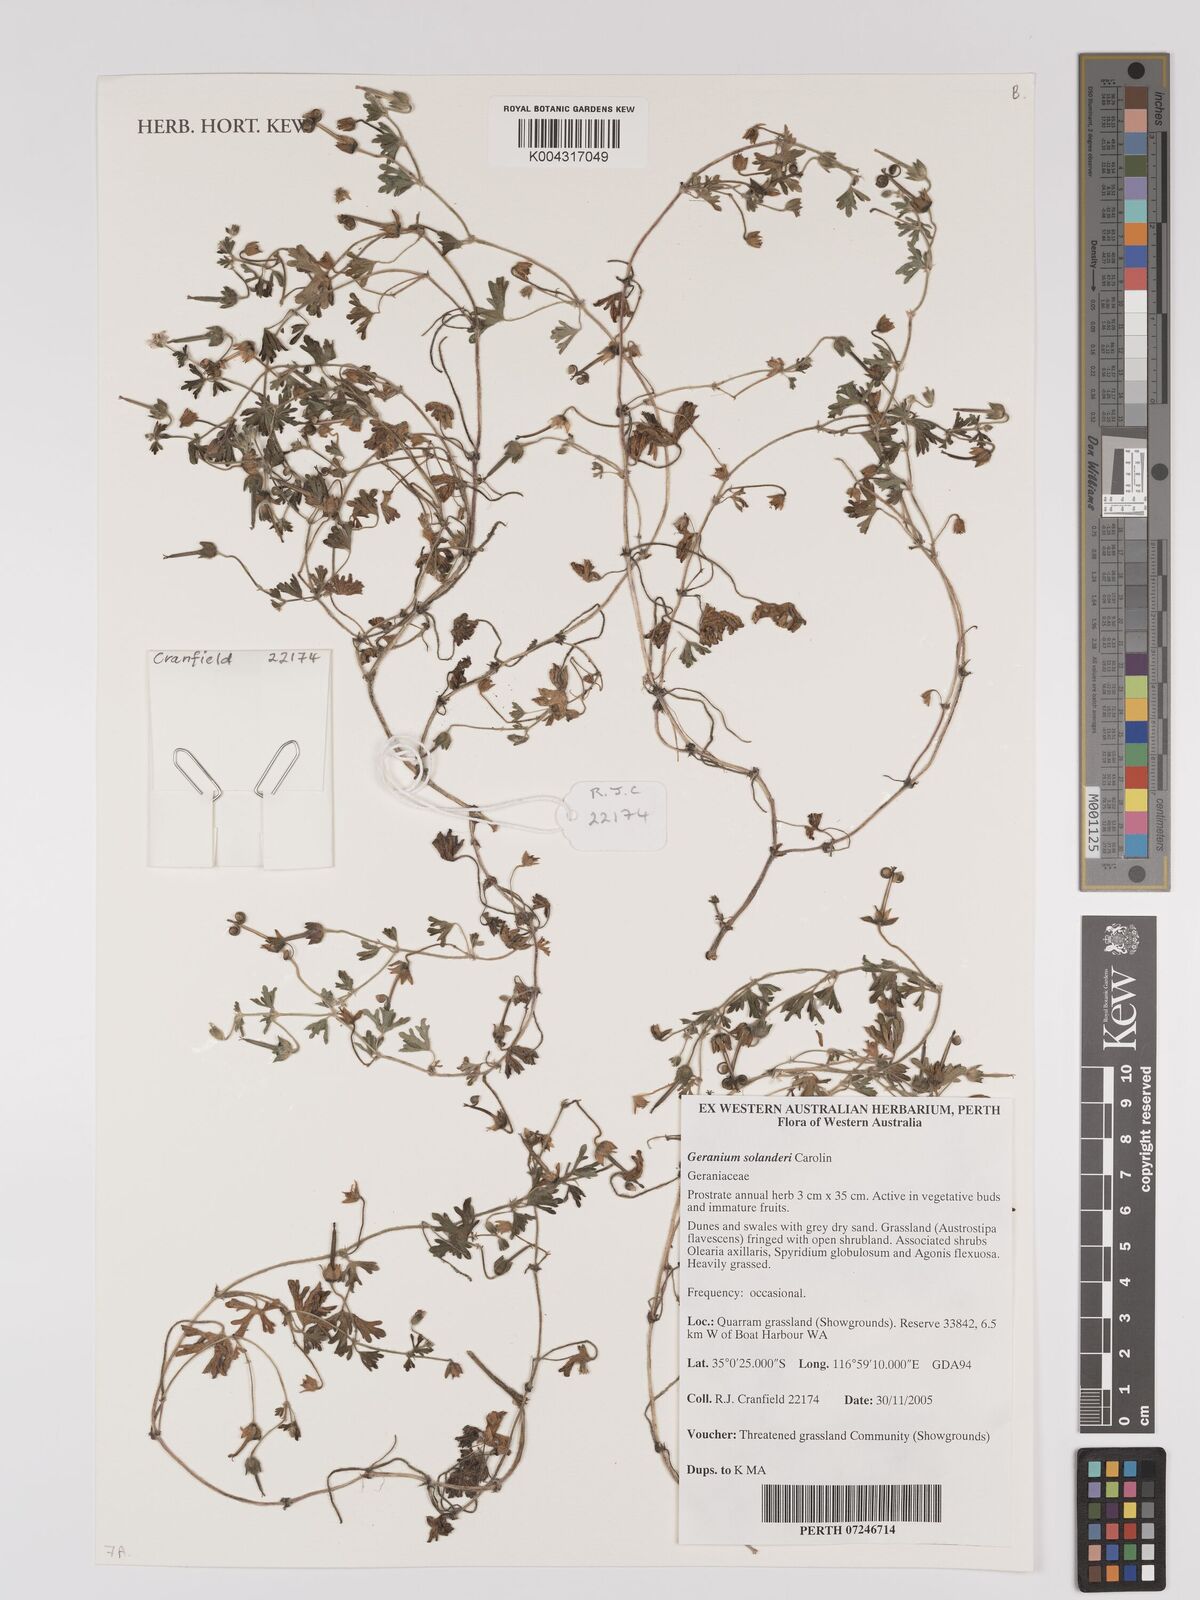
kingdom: Plantae
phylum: Tracheophyta
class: Magnoliopsida
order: Geraniales
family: Geraniaceae
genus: Geranium
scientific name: Geranium solanderi
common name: Solander's geranium
